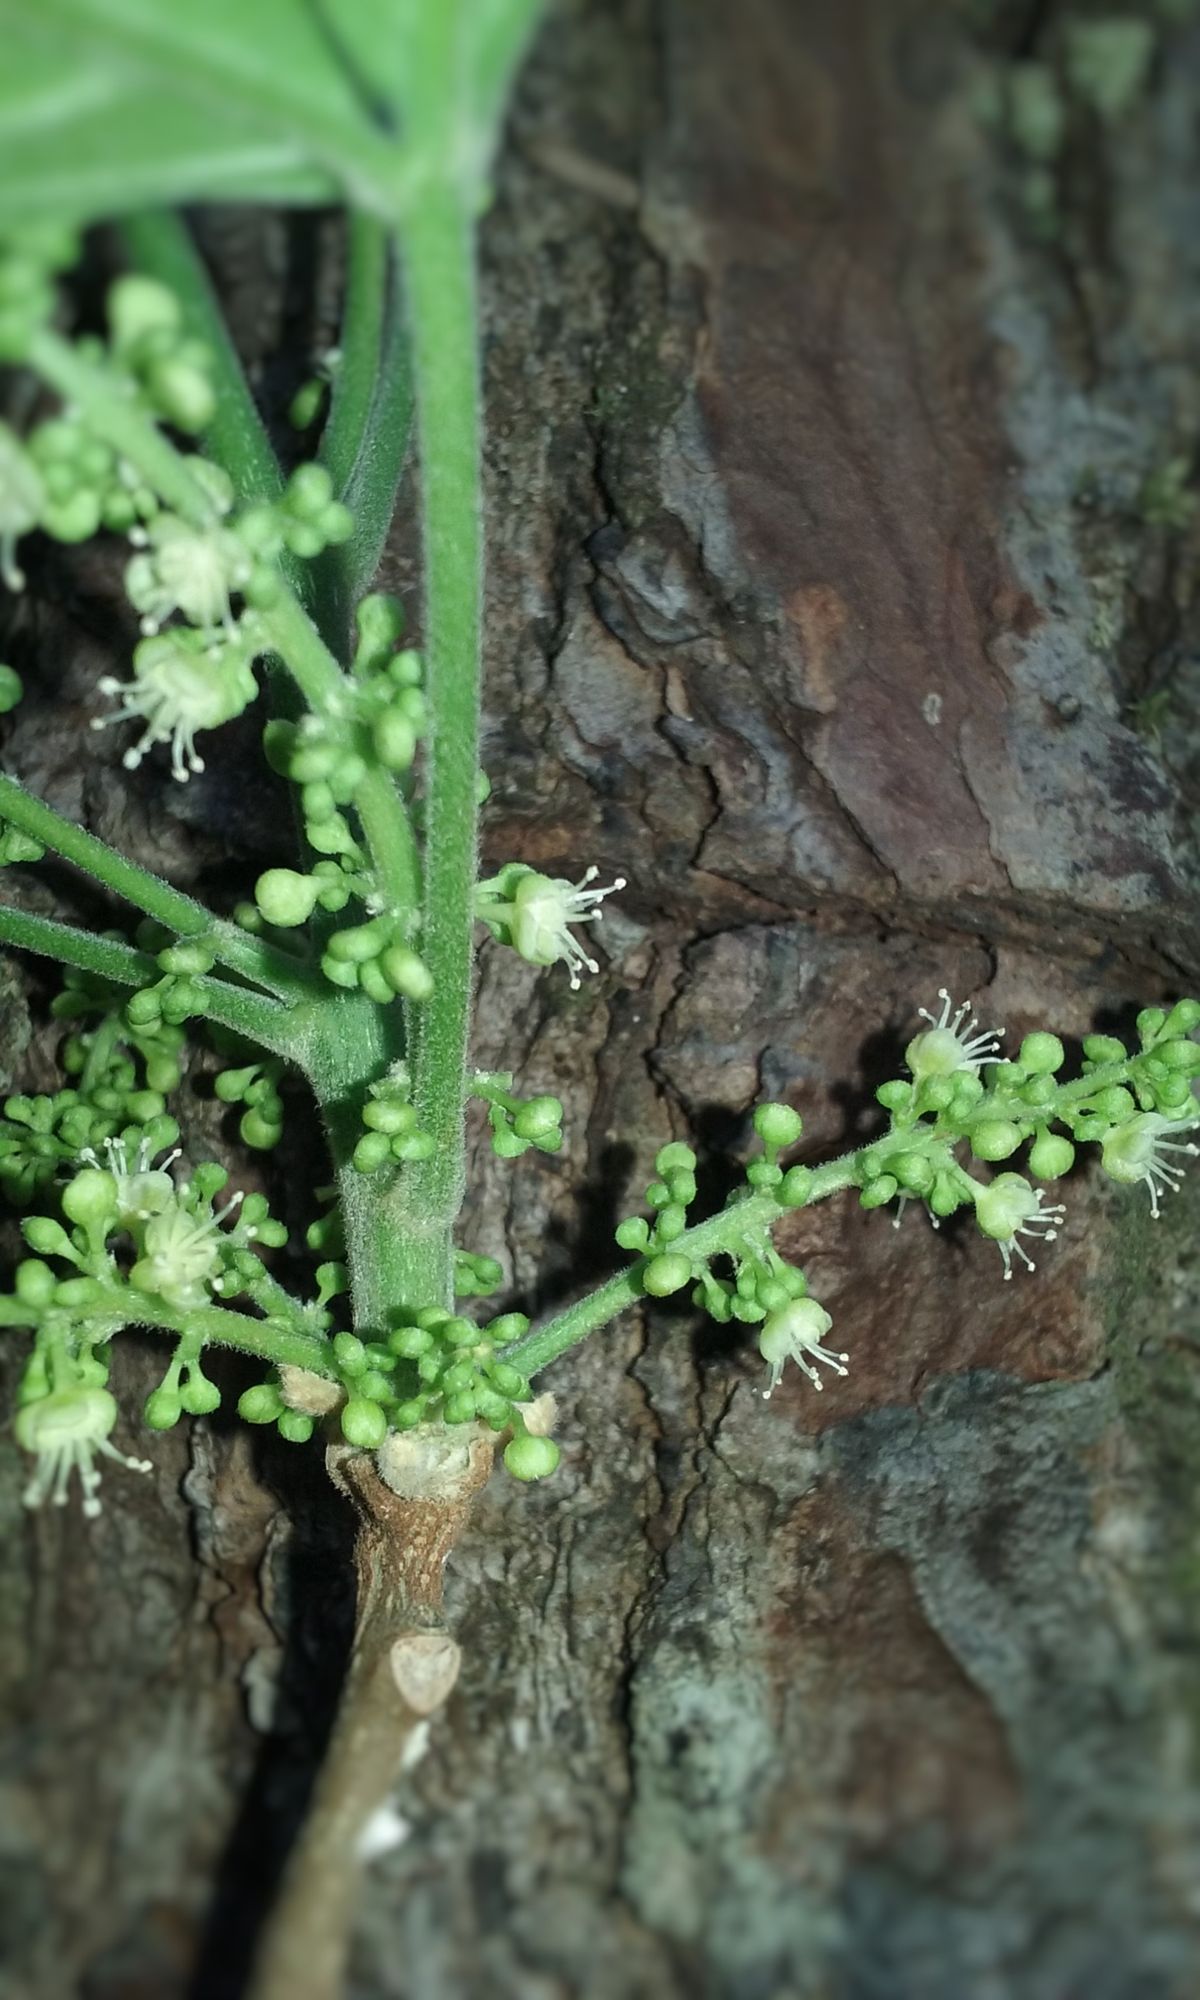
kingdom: Plantae
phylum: Tracheophyta
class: Magnoliopsida
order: Sapindales
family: Sapindaceae
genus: Allophylus
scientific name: Allophylus racemosus
